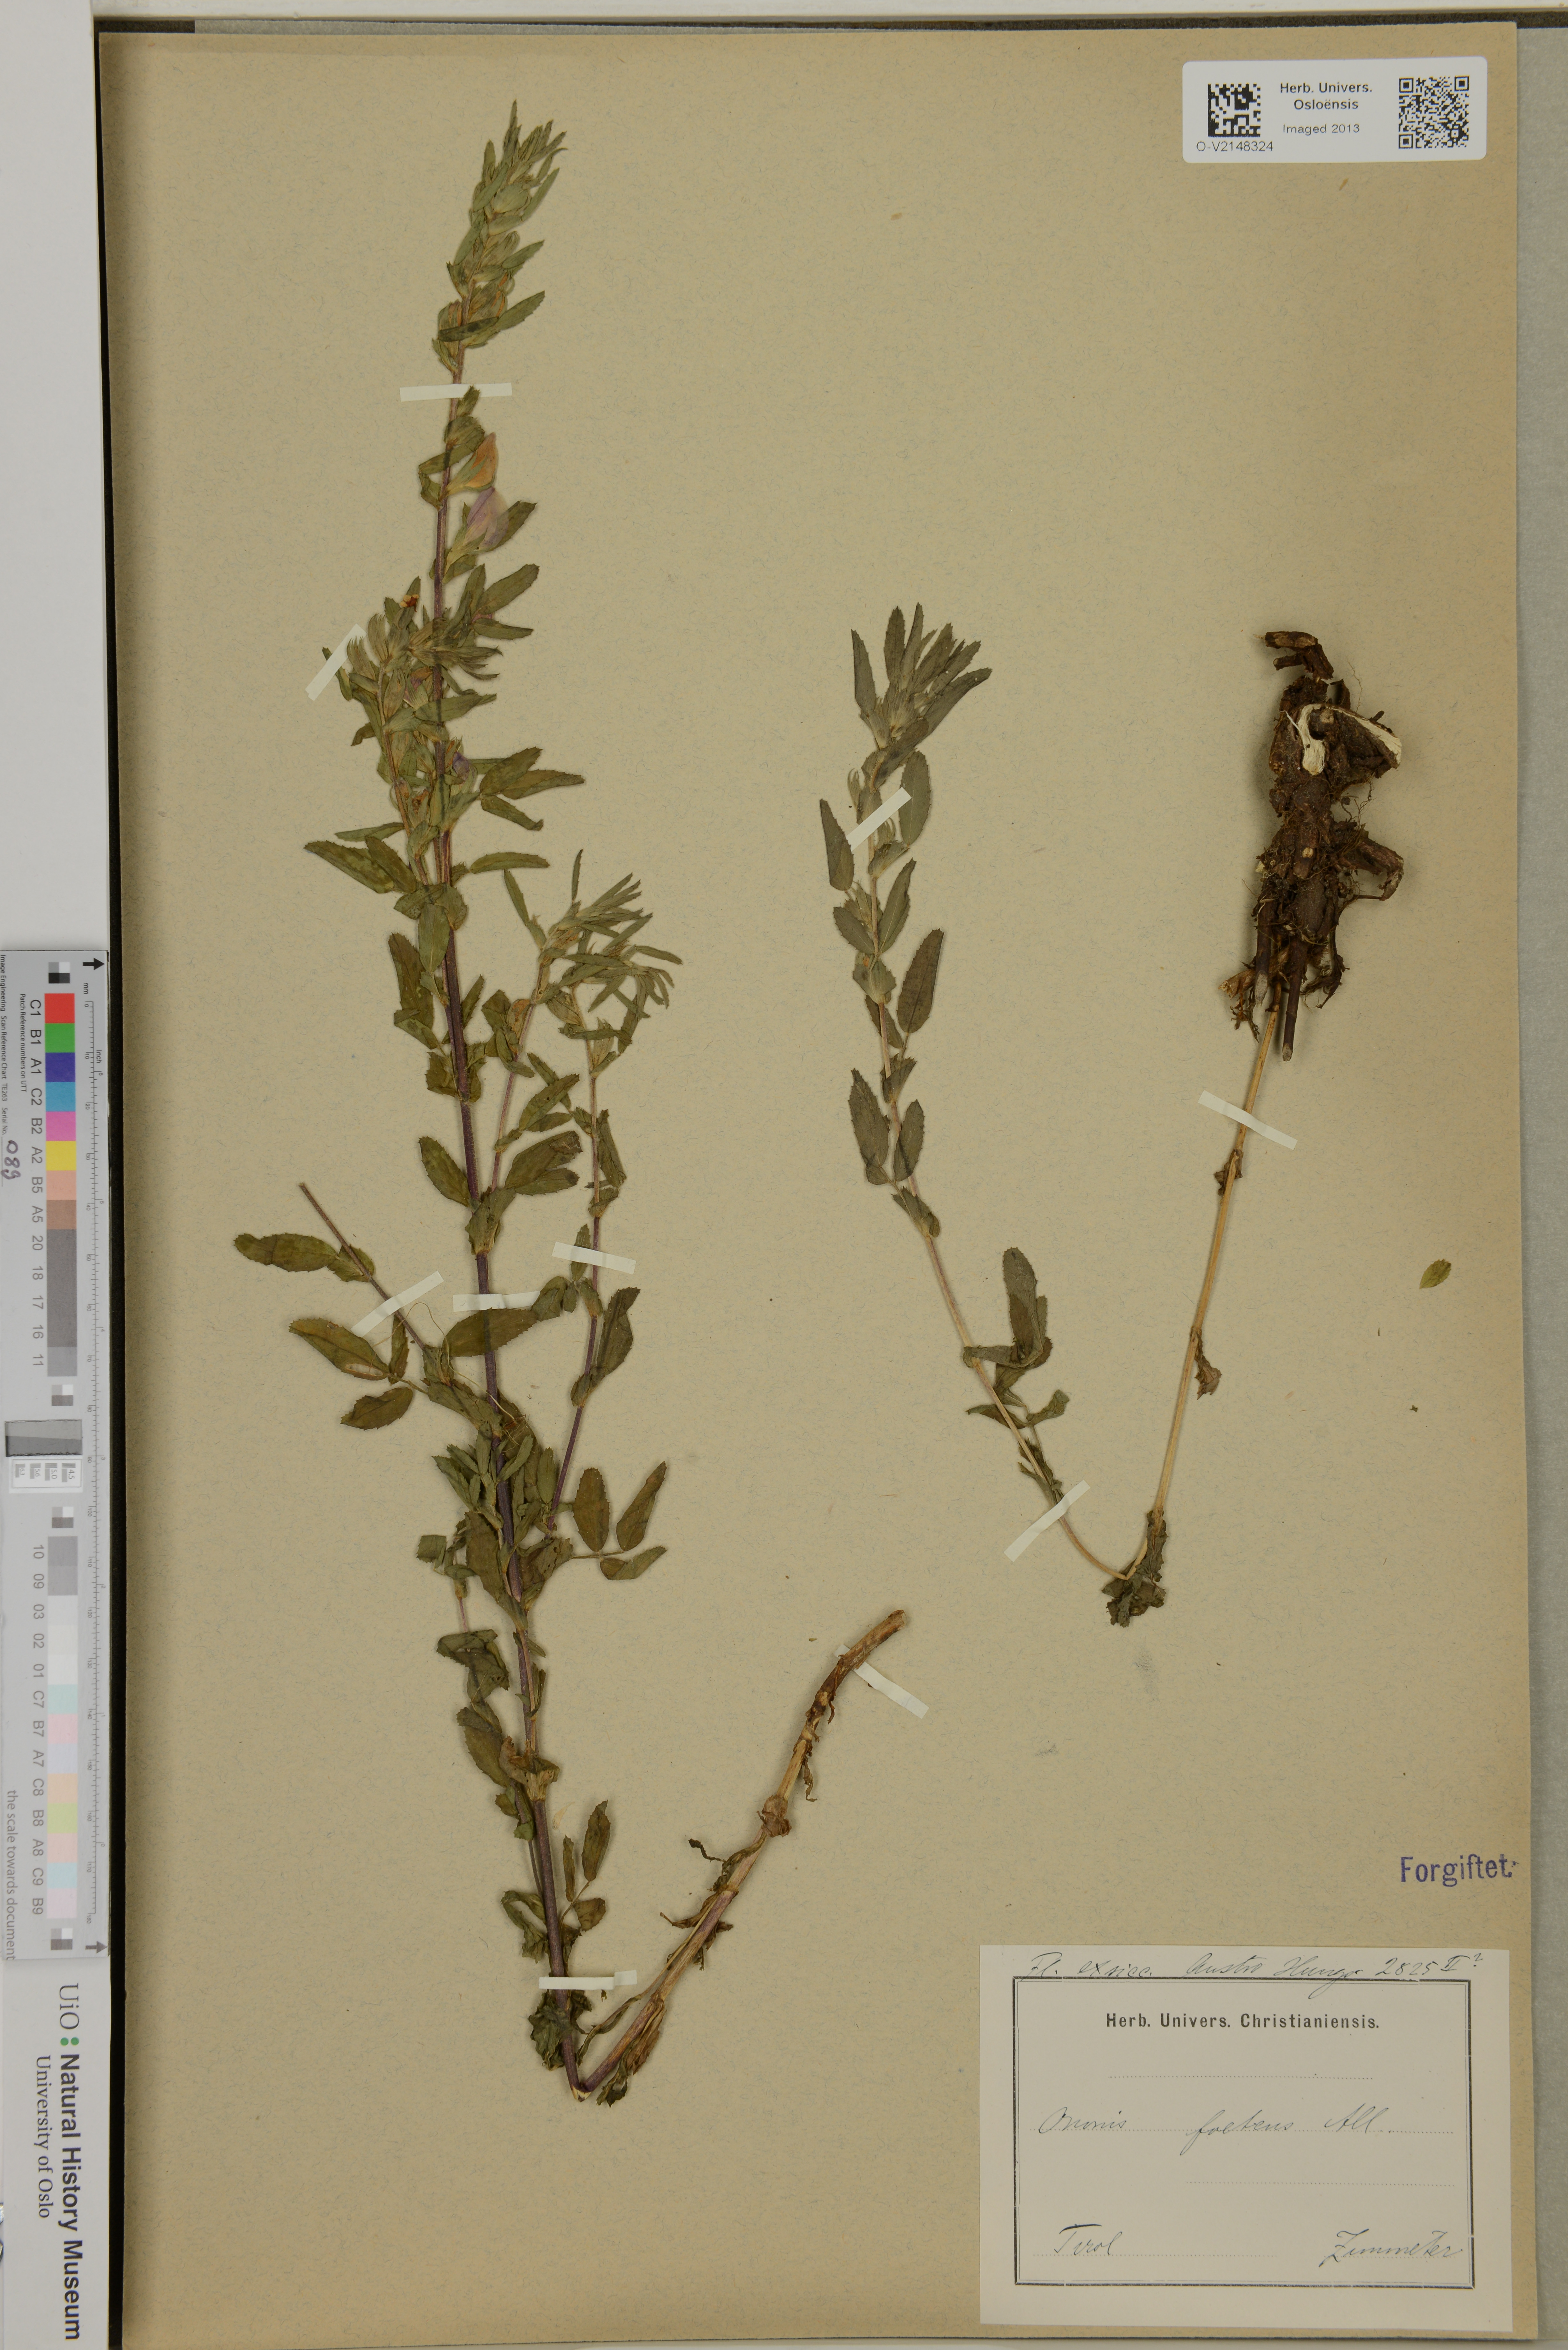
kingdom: Plantae
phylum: Tracheophyta
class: Magnoliopsida
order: Fabales
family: Fabaceae
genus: Ononis
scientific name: Ononis spinosa
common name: Spiny restharrow
